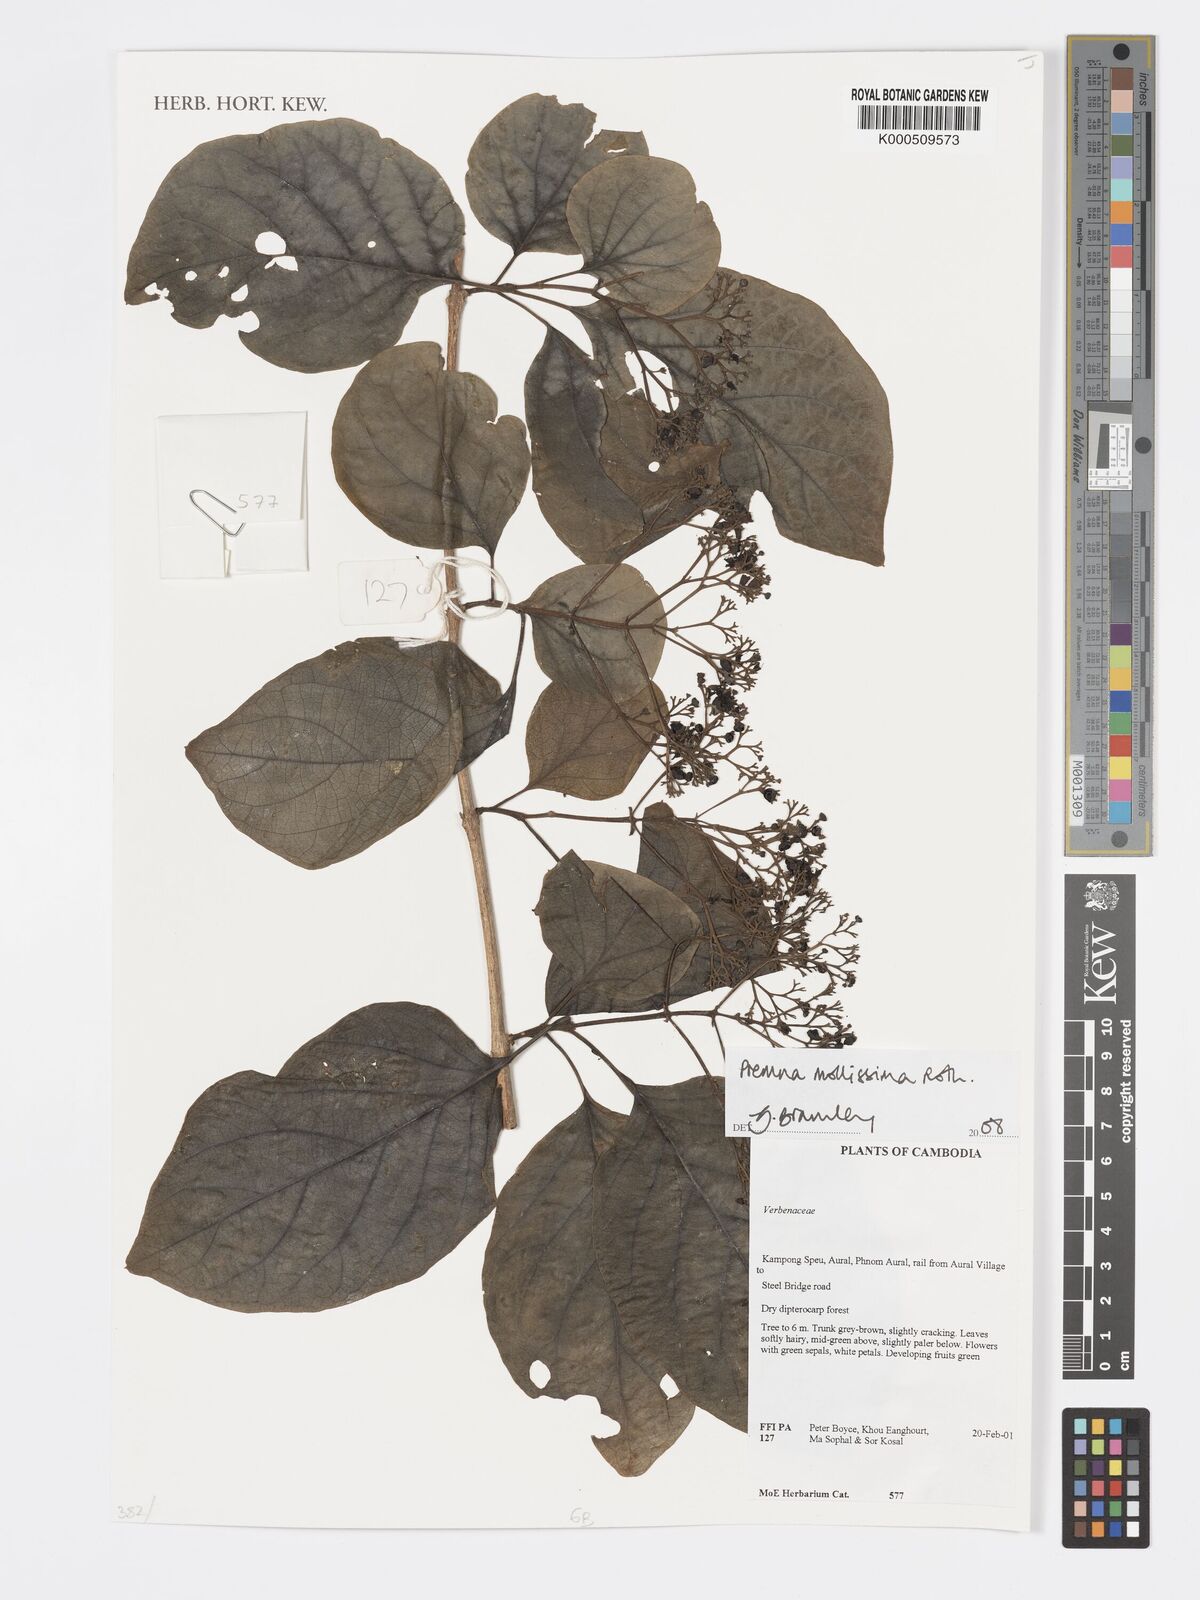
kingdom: Plantae
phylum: Tracheophyta
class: Magnoliopsida
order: Lamiales
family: Lamiaceae
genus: Premna
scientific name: Premna mollissima
